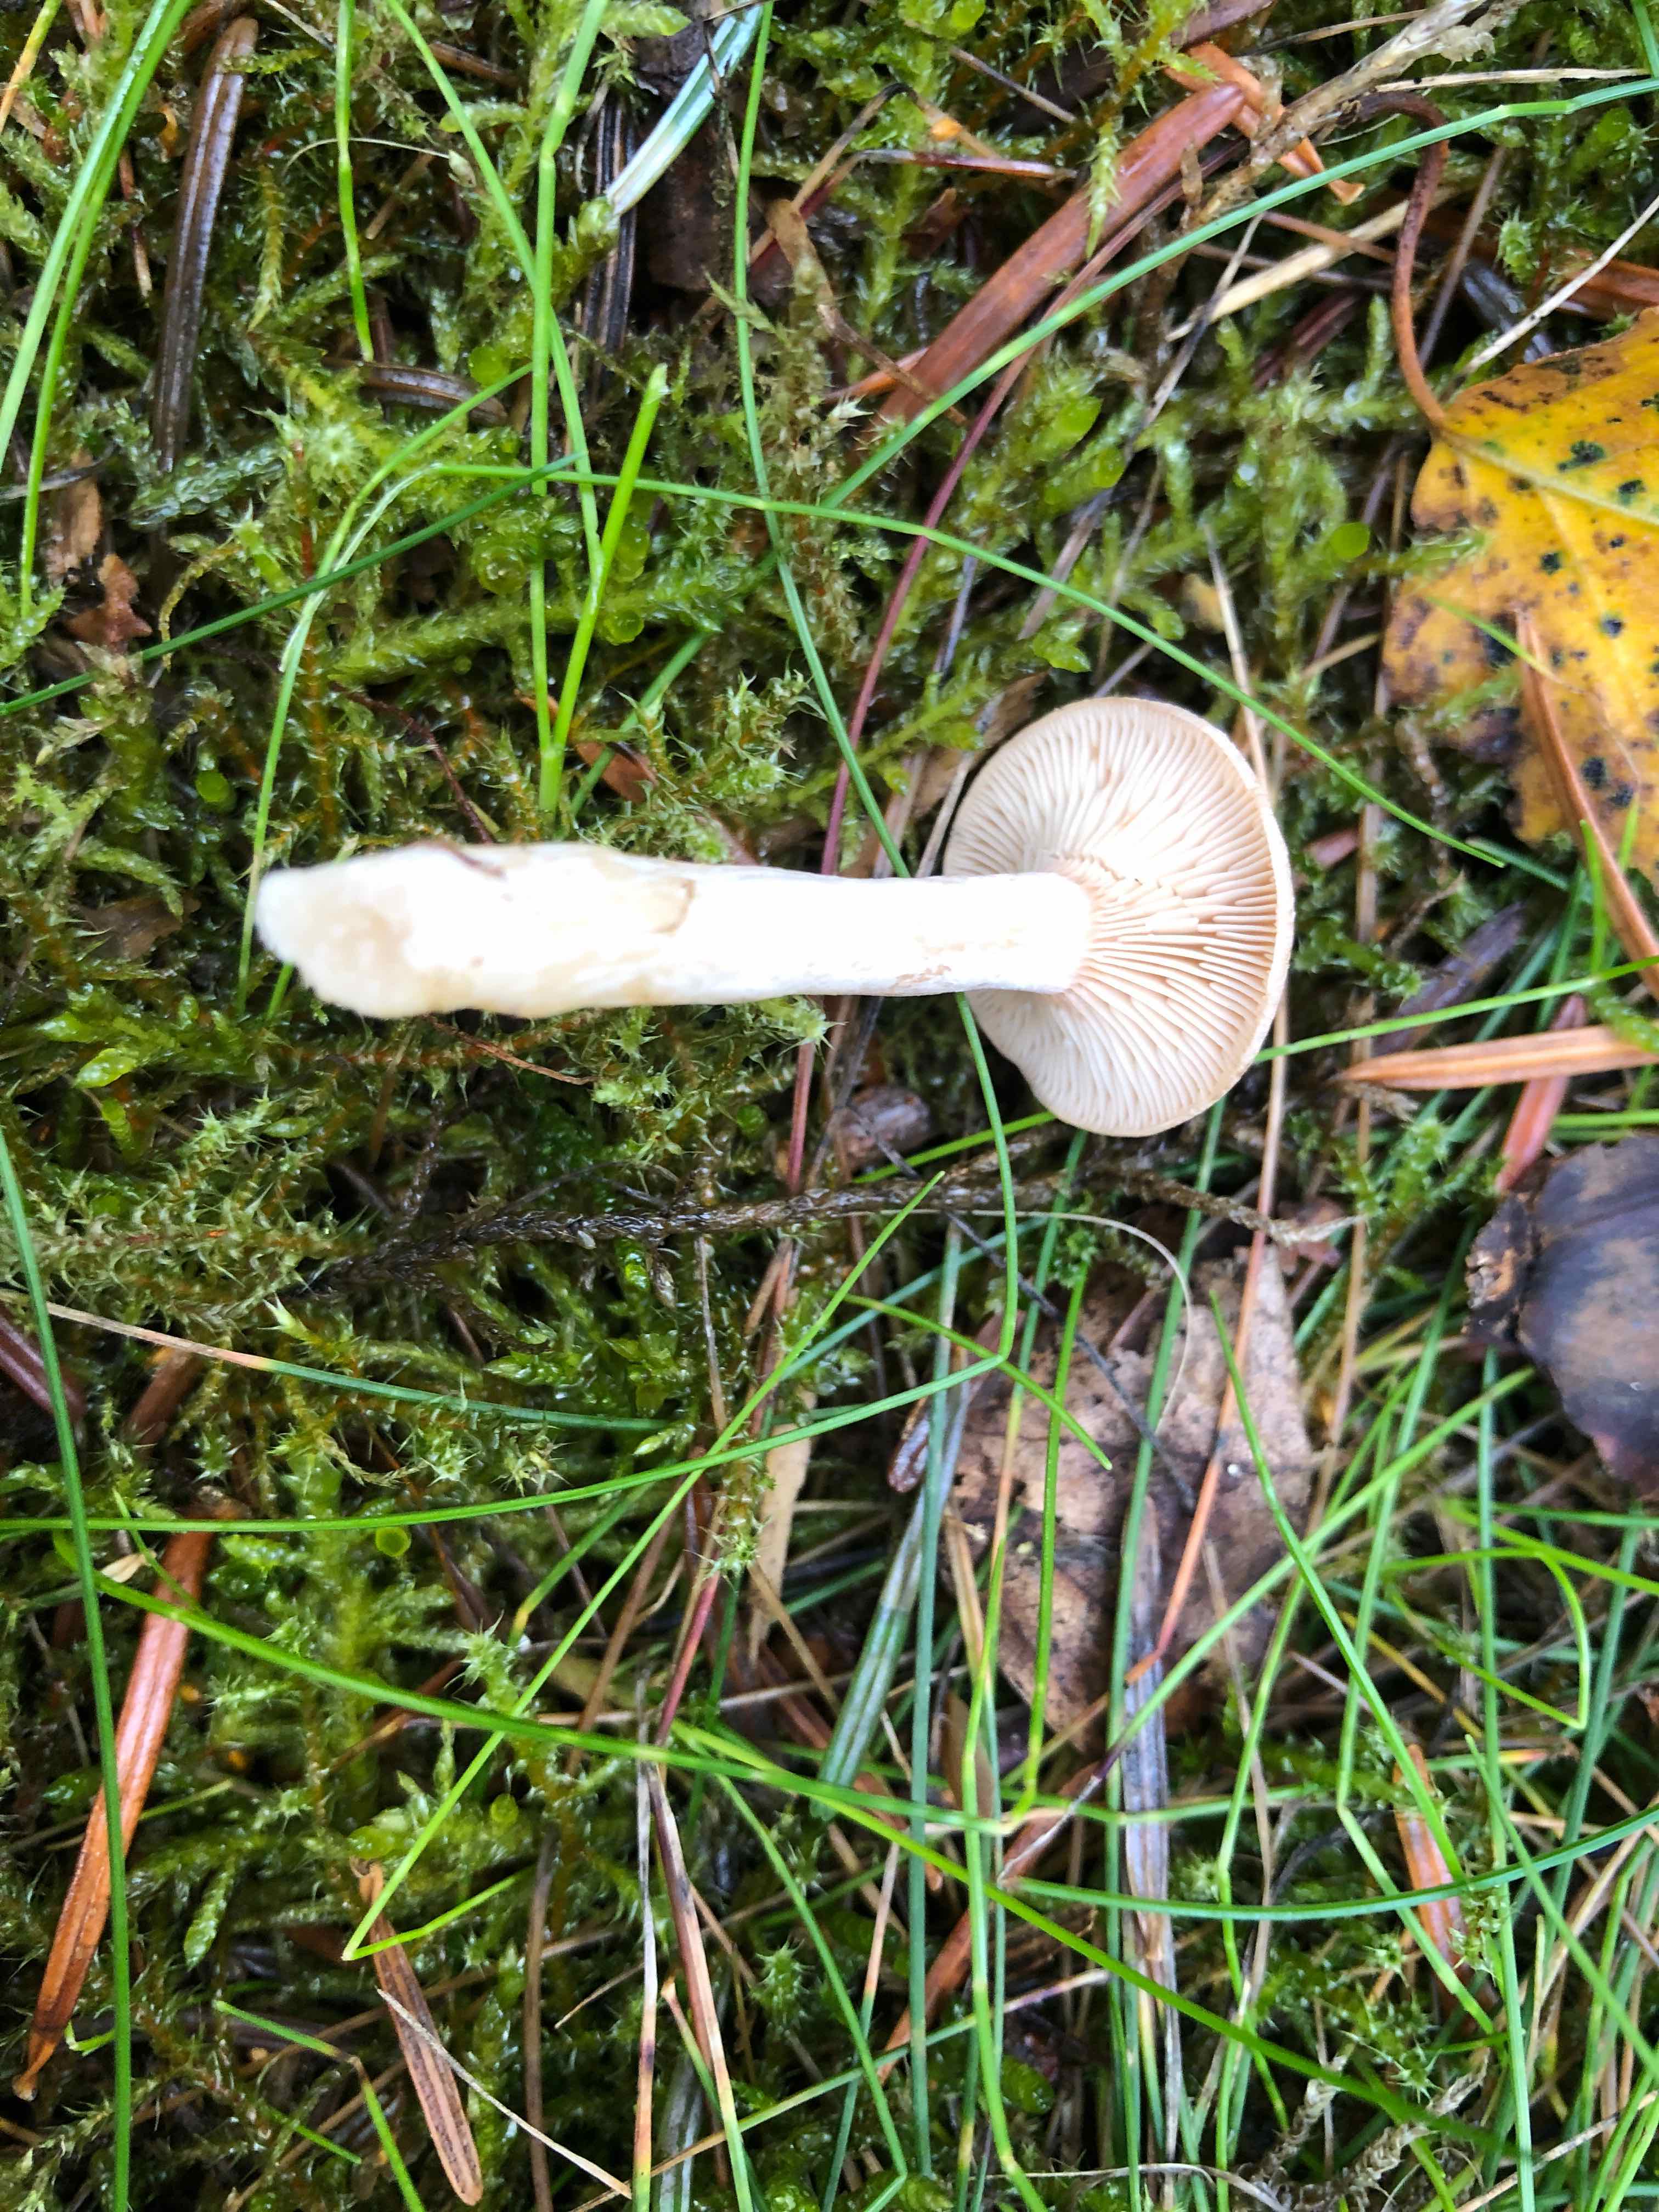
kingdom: Fungi
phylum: Basidiomycota
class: Agaricomycetes
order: Russulales
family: Russulaceae
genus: Lactarius
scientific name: Lactarius glyciosmus
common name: kokos-mælkehat
